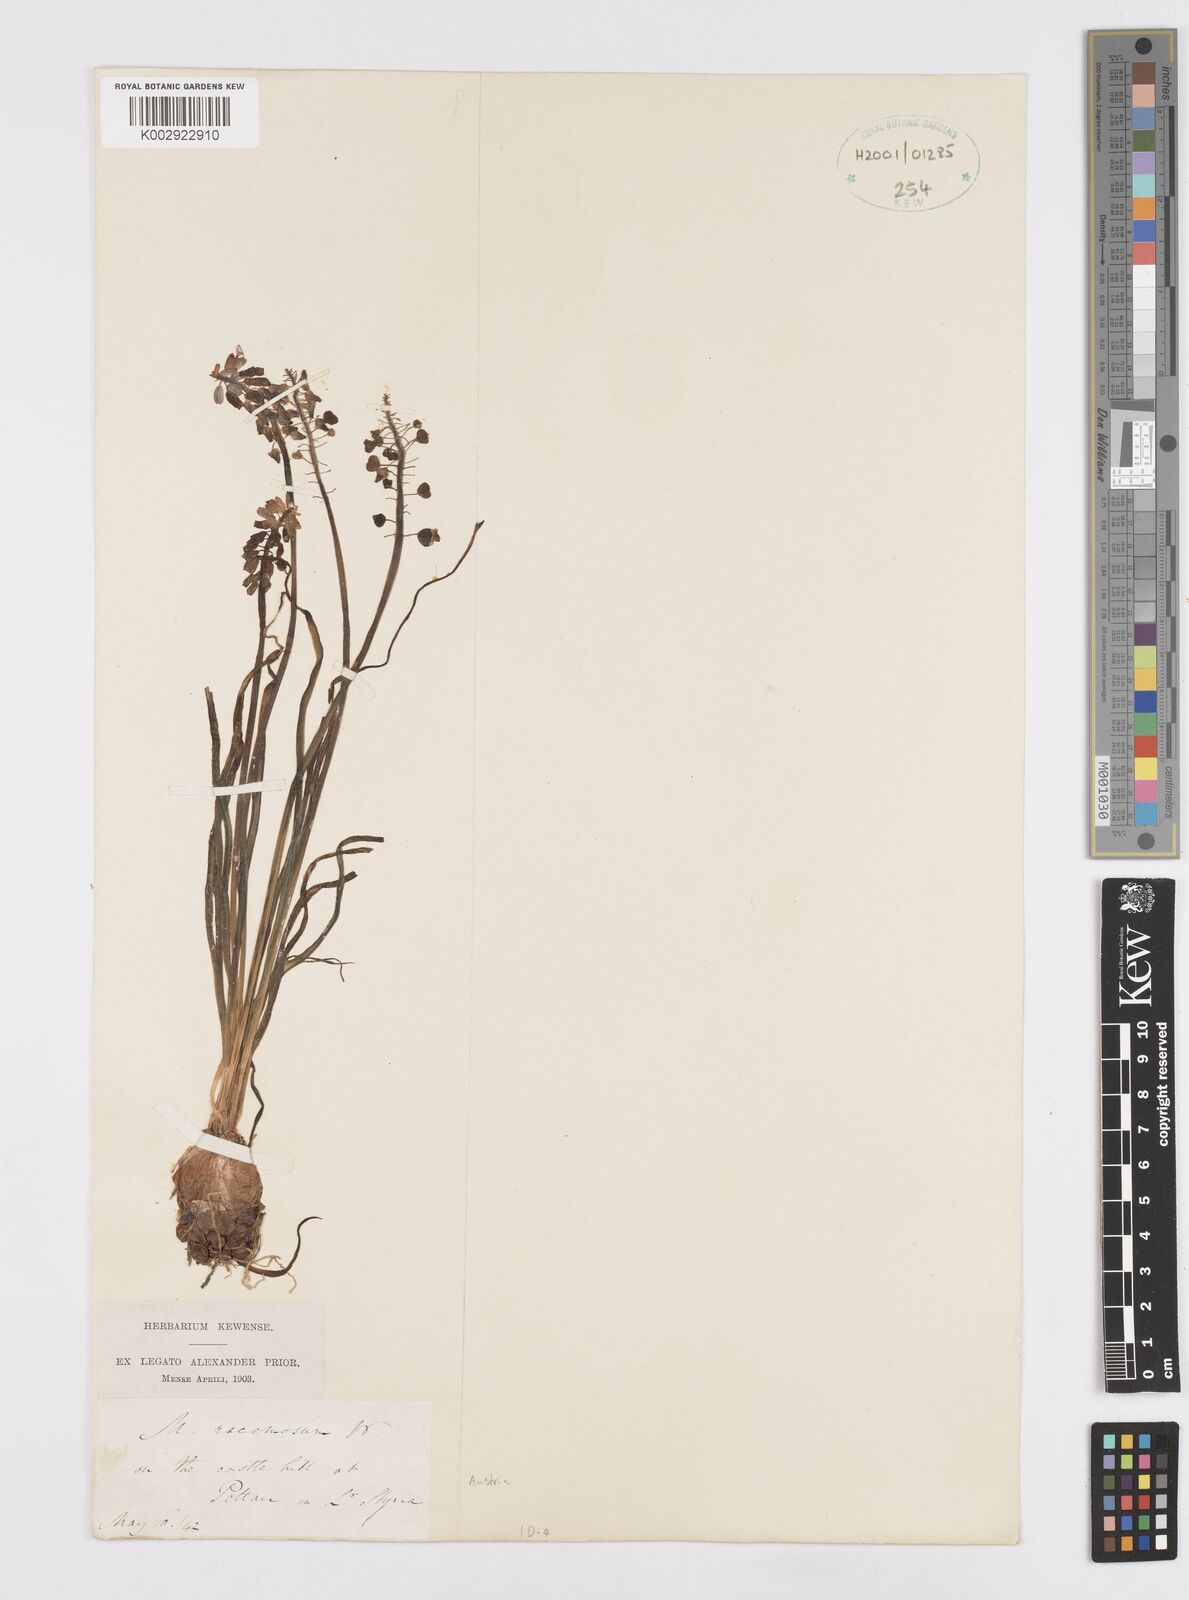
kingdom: Plantae
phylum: Tracheophyta
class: Liliopsida
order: Asparagales
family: Asparagaceae
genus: Muscarimia
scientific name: Muscarimia muscari
